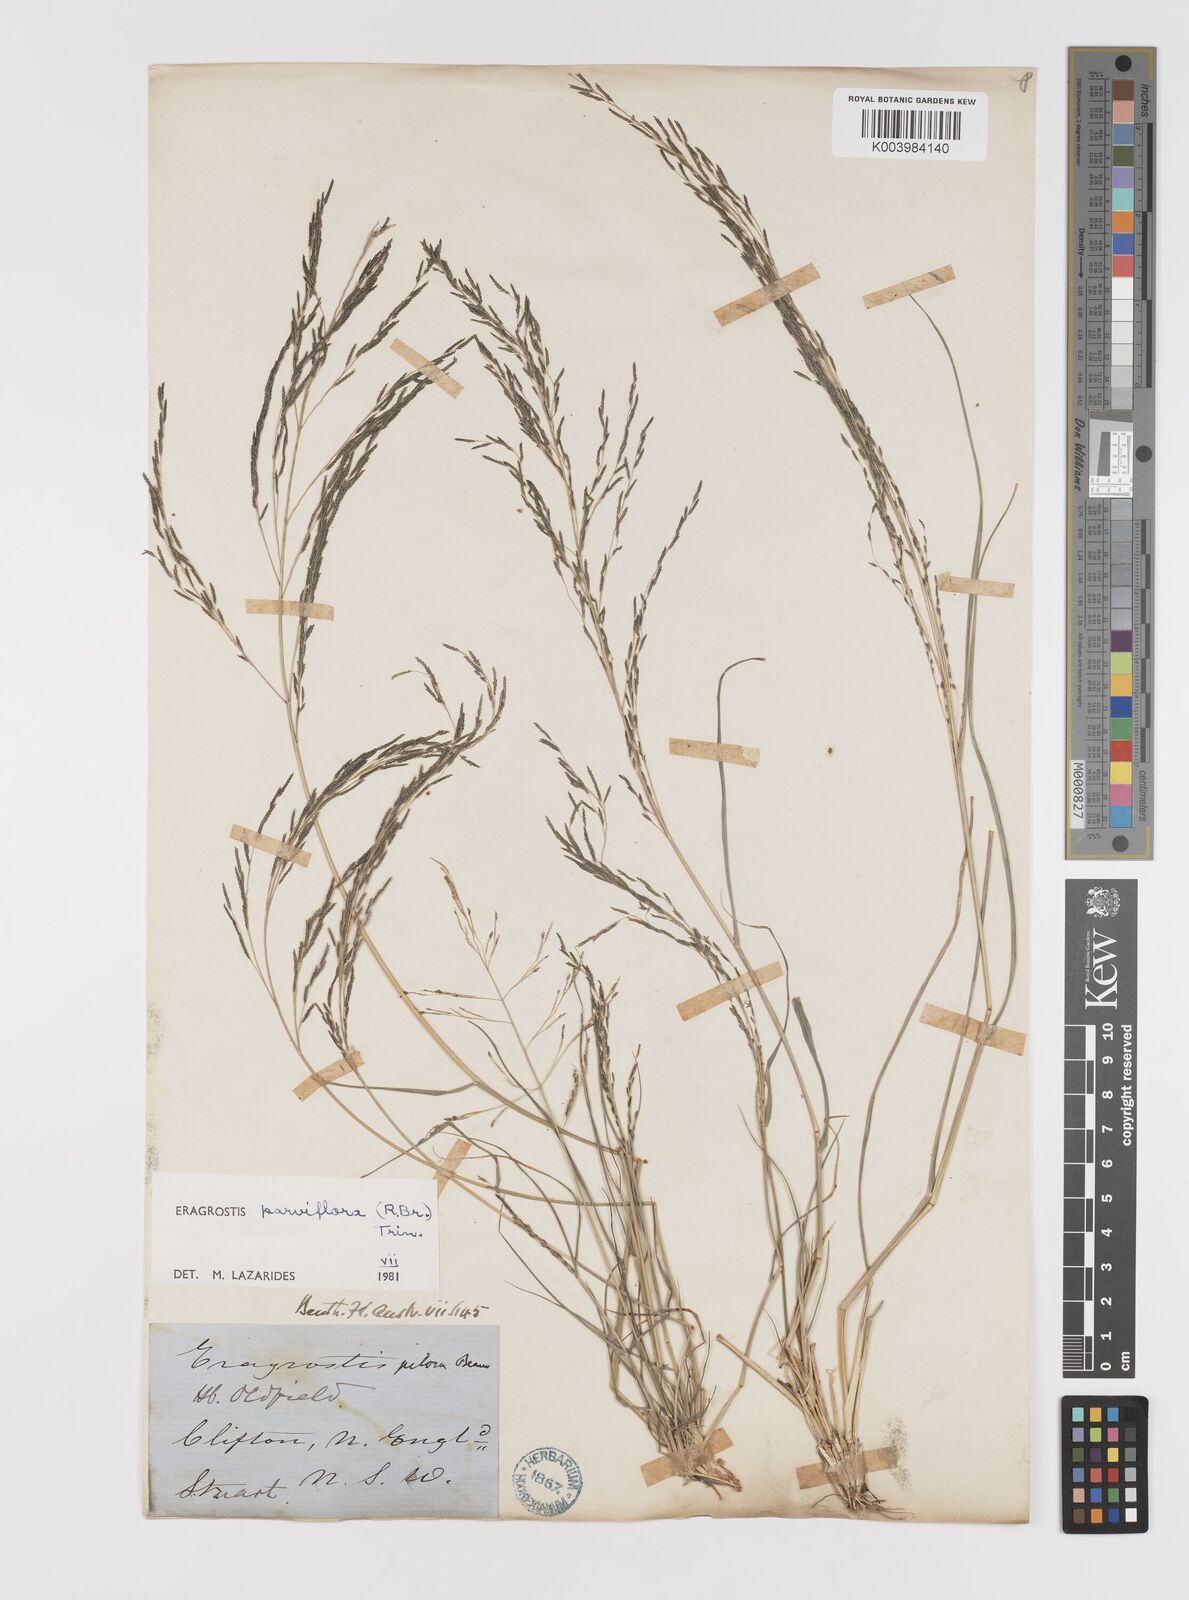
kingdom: Plantae
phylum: Tracheophyta
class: Liliopsida
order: Poales
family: Poaceae
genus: Eragrostis
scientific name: Eragrostis parviflora
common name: Weeping love-grass
